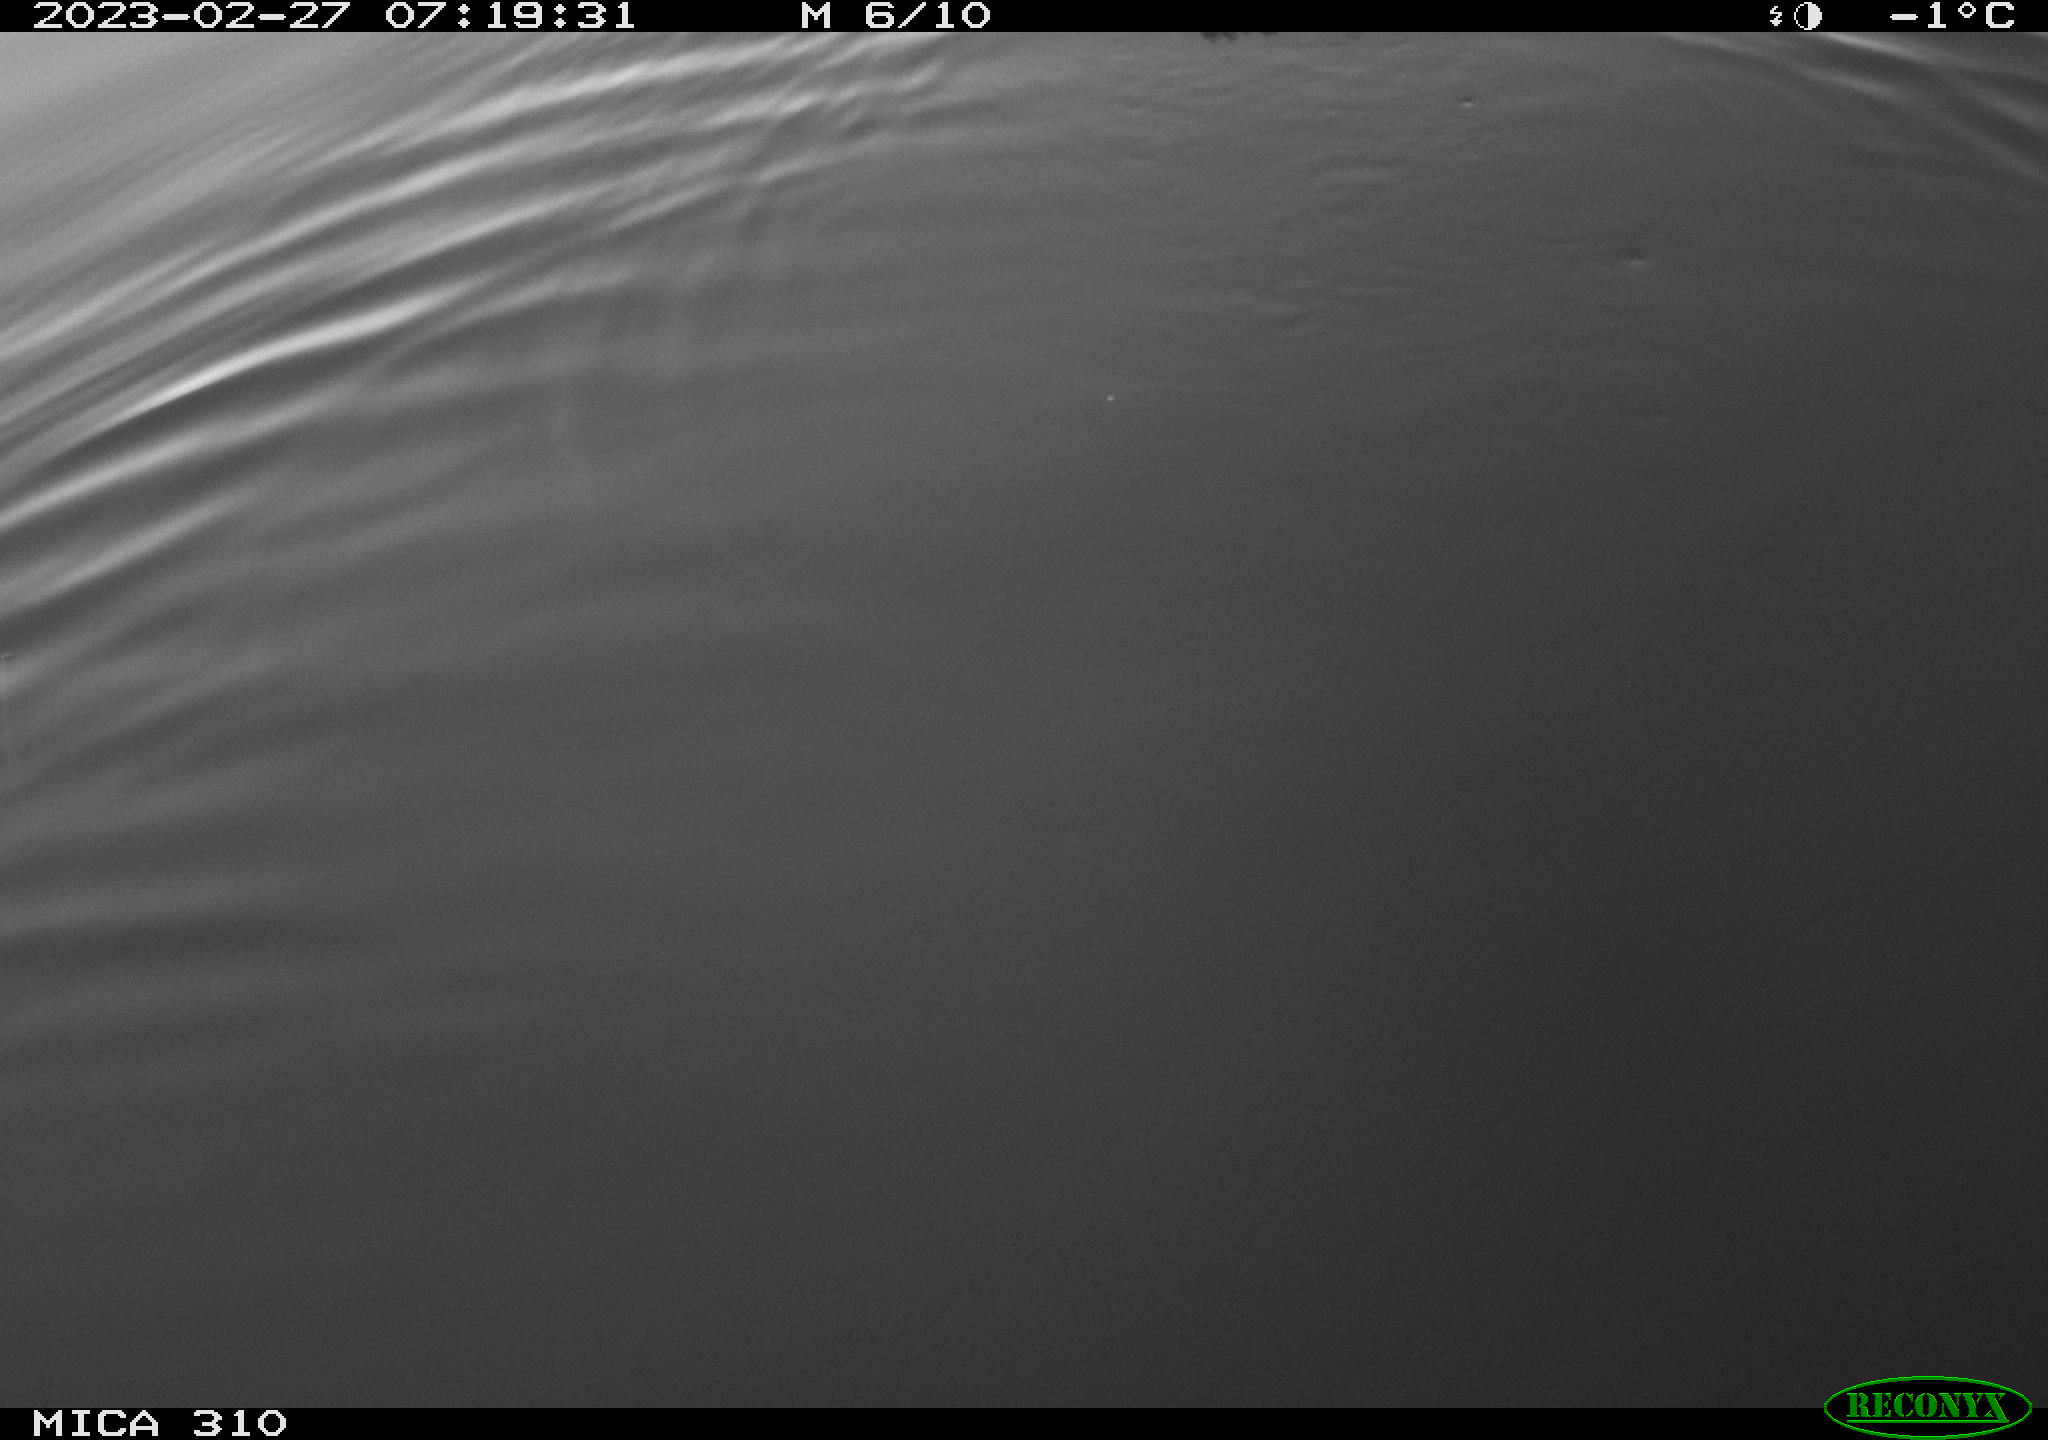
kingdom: Animalia
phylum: Chordata
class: Aves
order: Pelecaniformes
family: Ardeidae
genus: Ardea
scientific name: Ardea cinerea
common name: Grey heron
